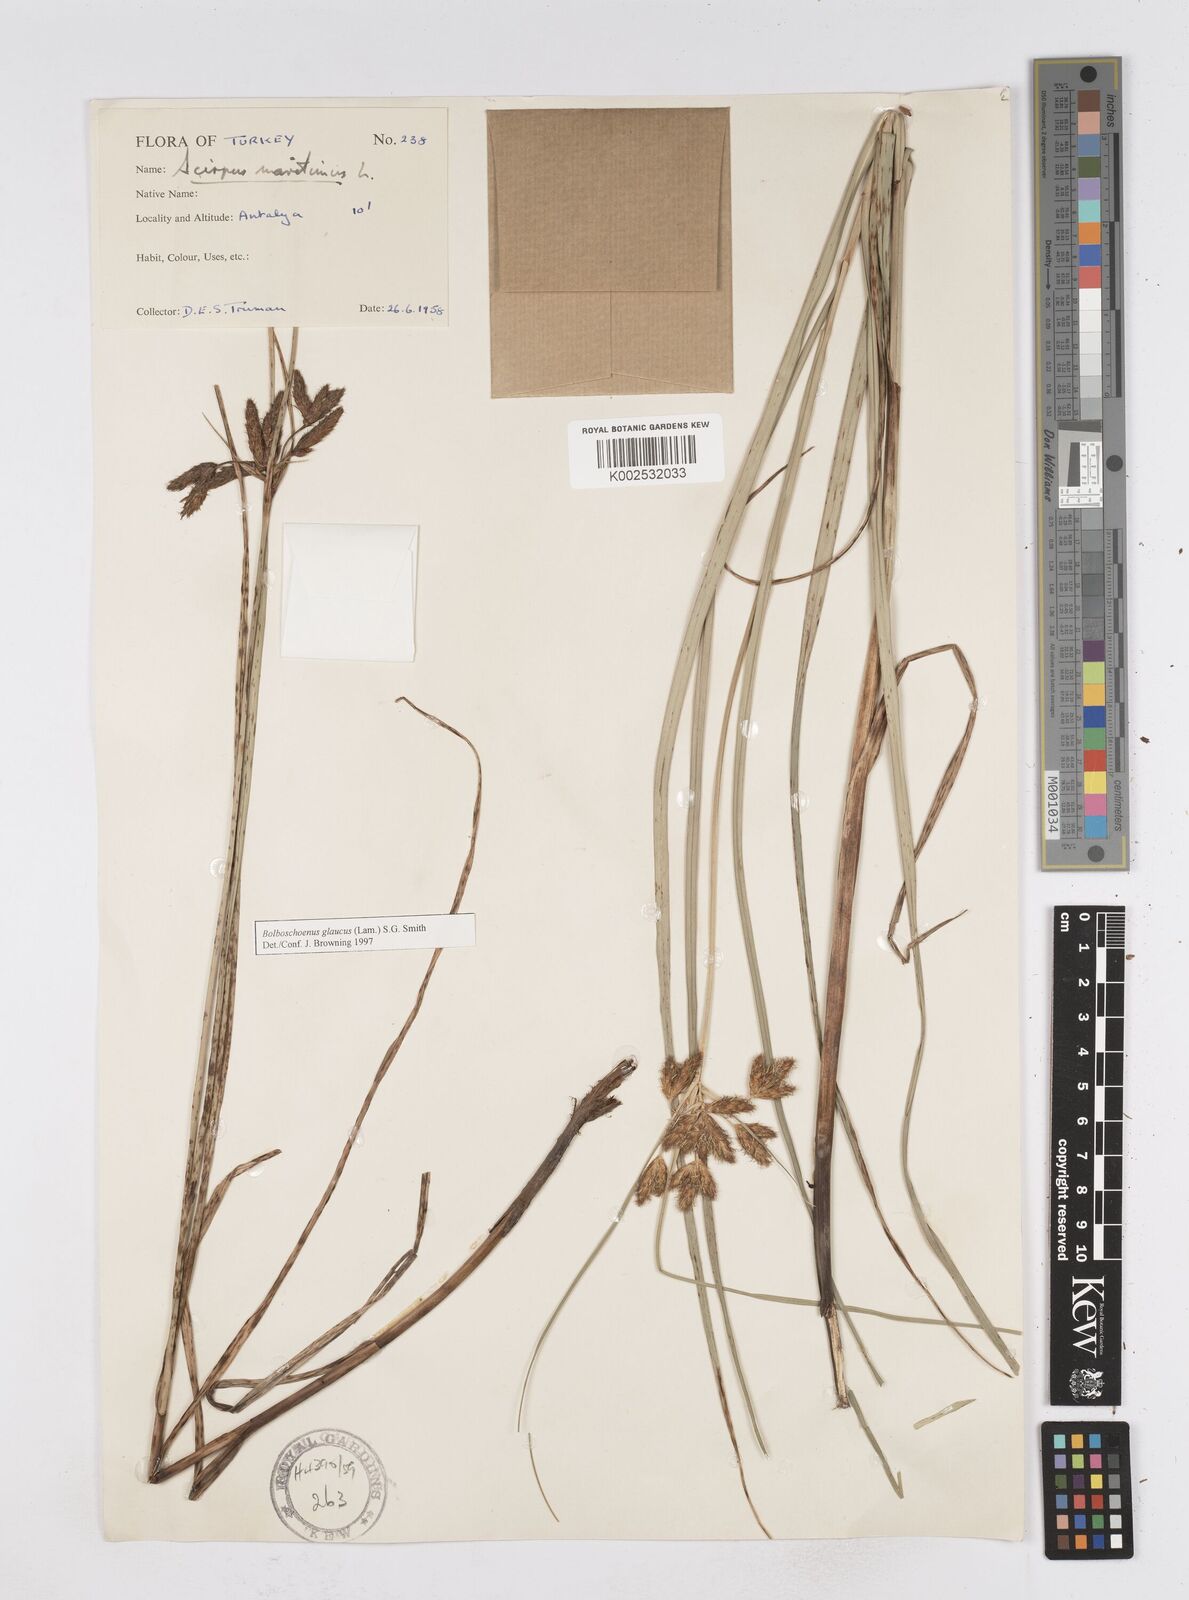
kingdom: Plantae
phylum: Tracheophyta
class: Liliopsida
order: Poales
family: Cyperaceae
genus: Bolboschoenus
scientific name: Bolboschoenus maritimus
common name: Sea club-rush
